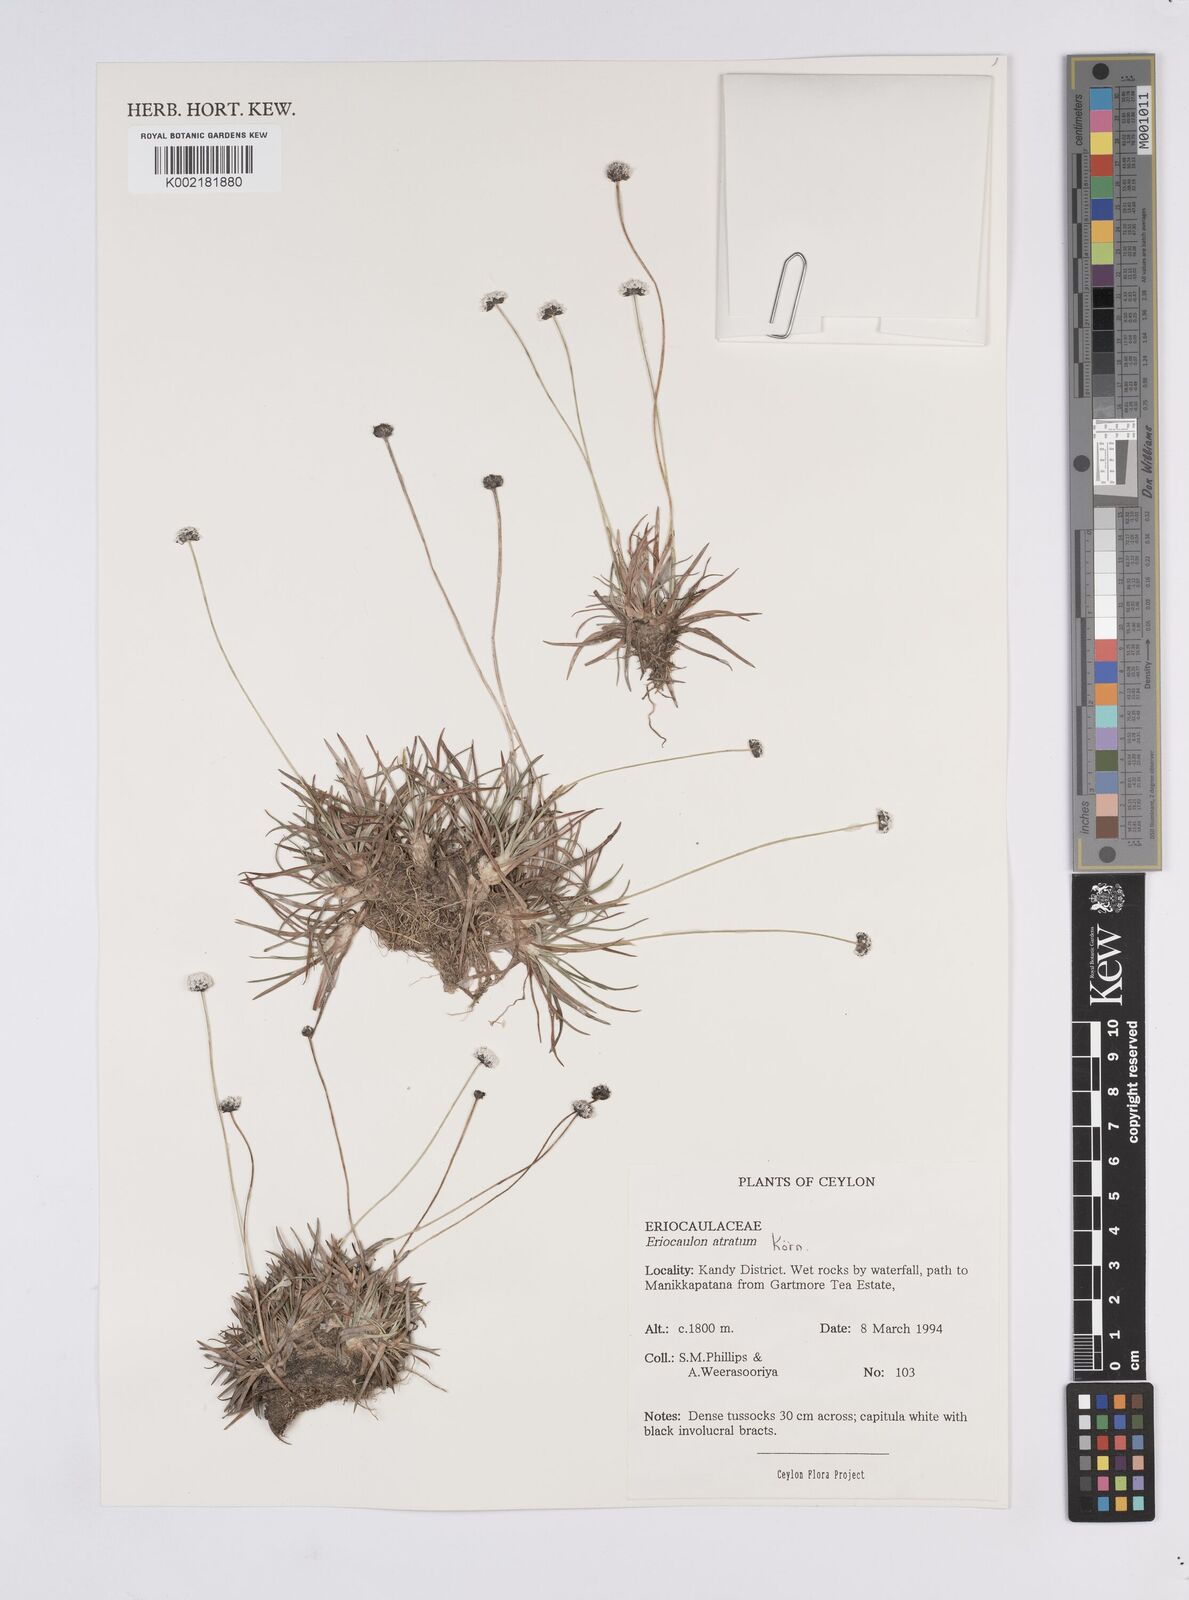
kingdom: Plantae
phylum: Tracheophyta
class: Liliopsida
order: Poales
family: Eriocaulaceae
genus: Eriocaulon
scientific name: Eriocaulon atratum
